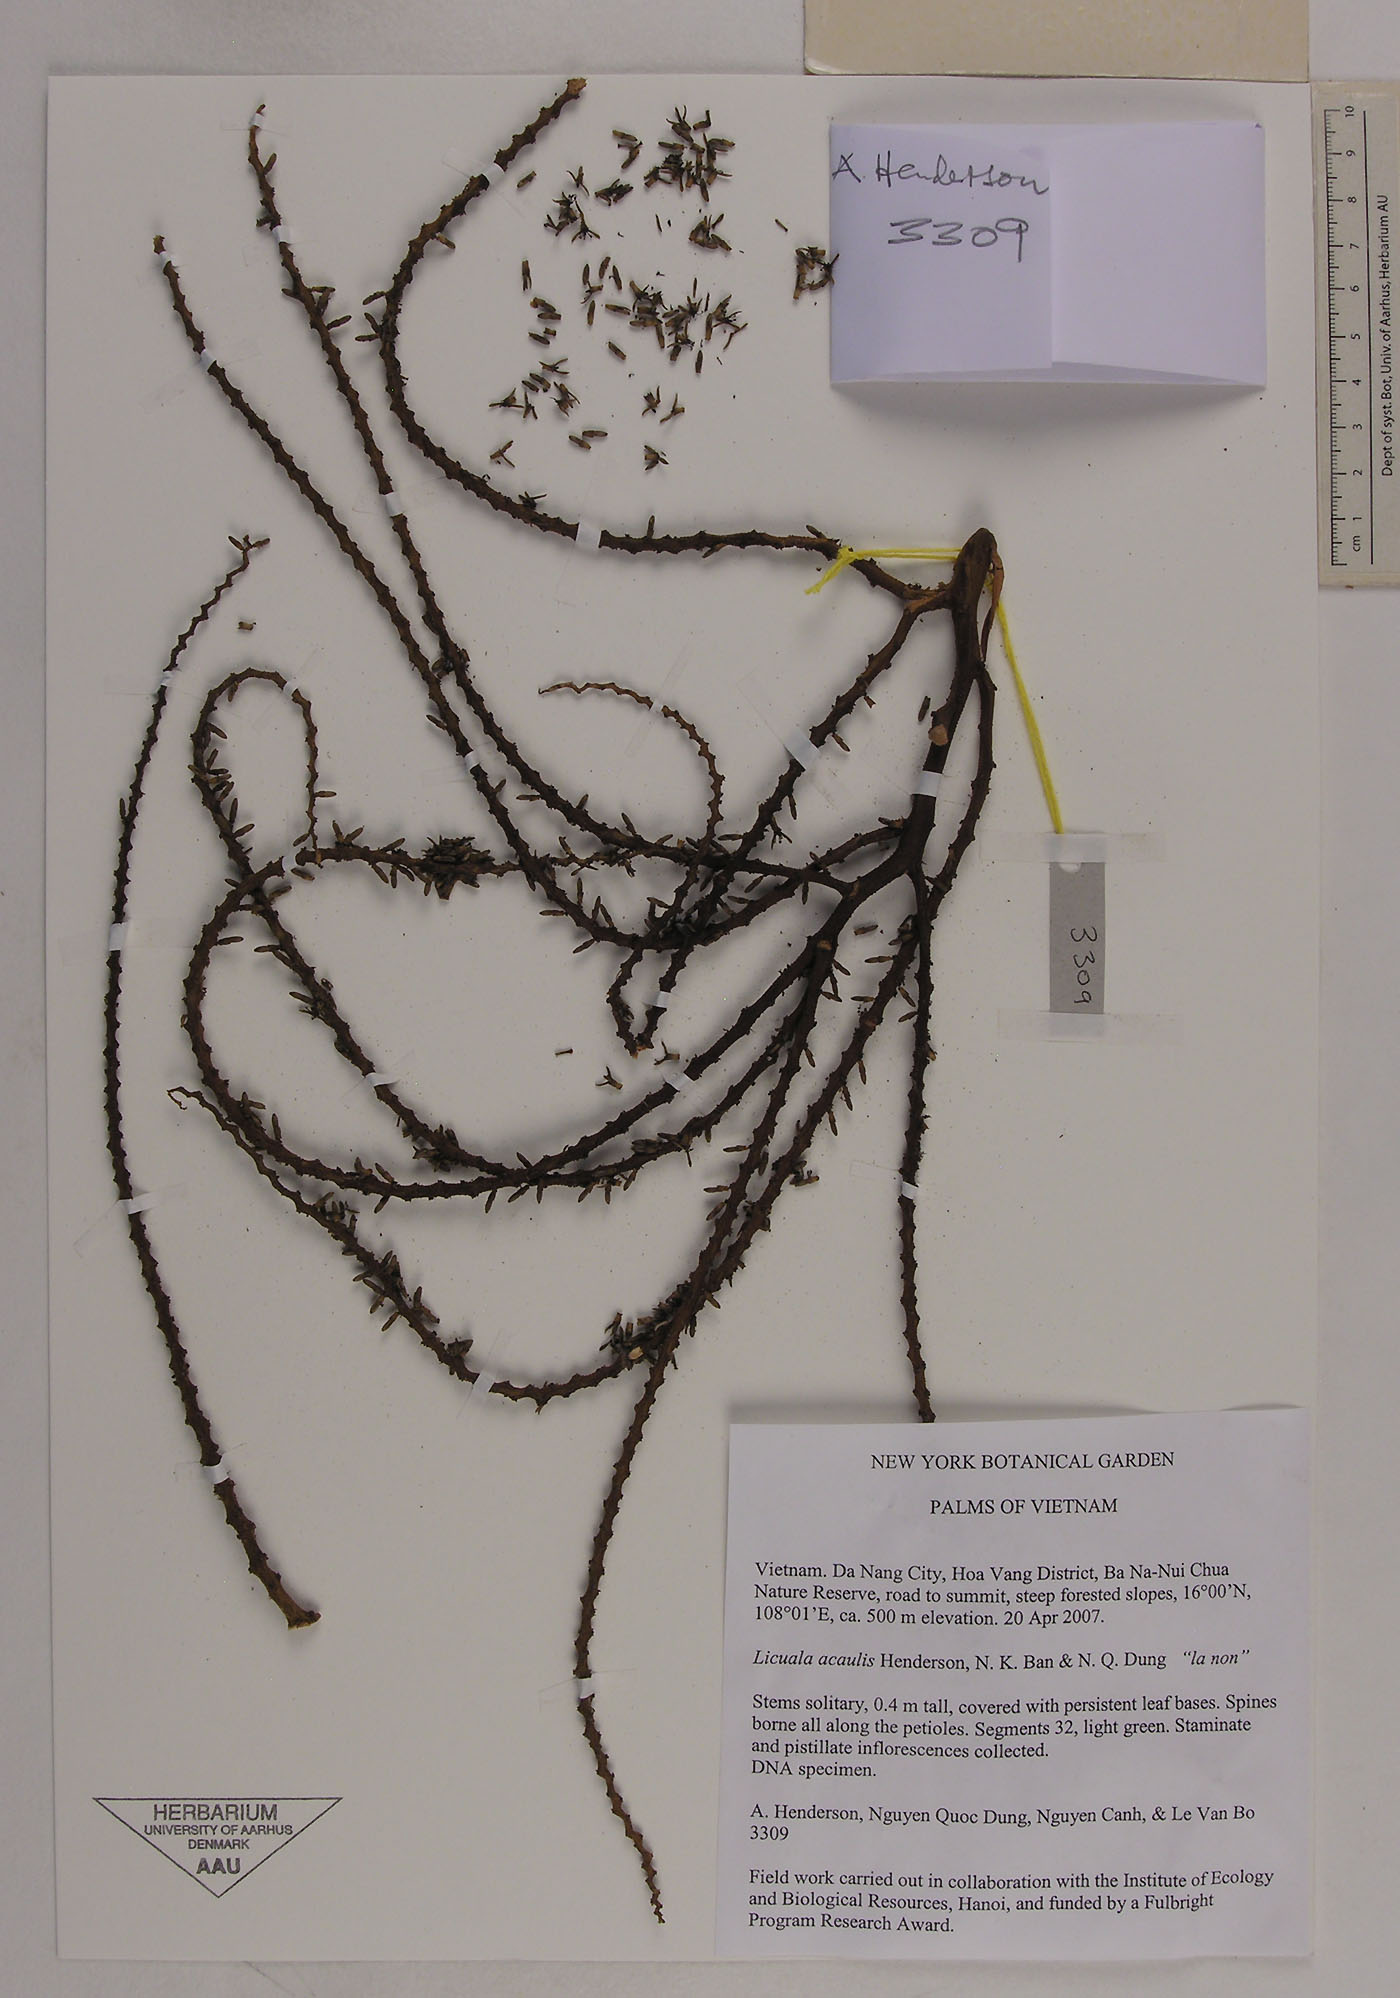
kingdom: Plantae
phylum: Tracheophyta
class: Liliopsida
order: Arecales
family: Arecaceae
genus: Lanonia
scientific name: Lanonia acaulis
